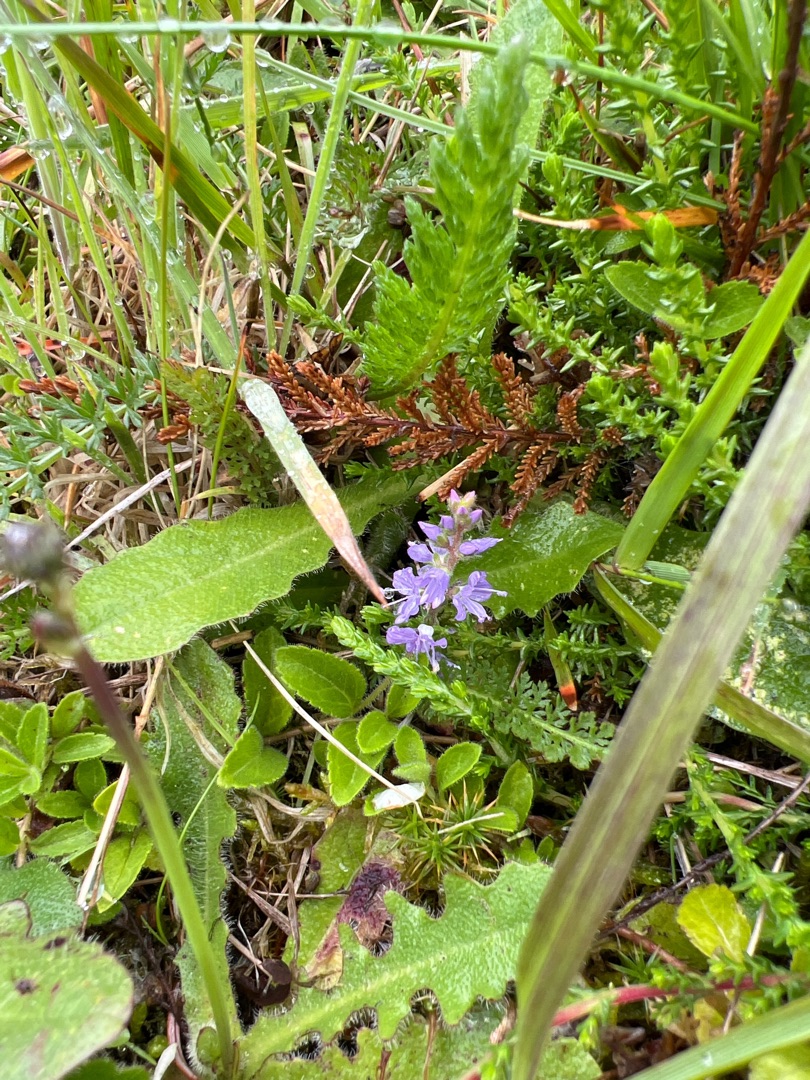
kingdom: Plantae
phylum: Tracheophyta
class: Magnoliopsida
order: Lamiales
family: Plantaginaceae
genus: Veronica
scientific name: Veronica officinalis
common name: Læge-ærenpris
